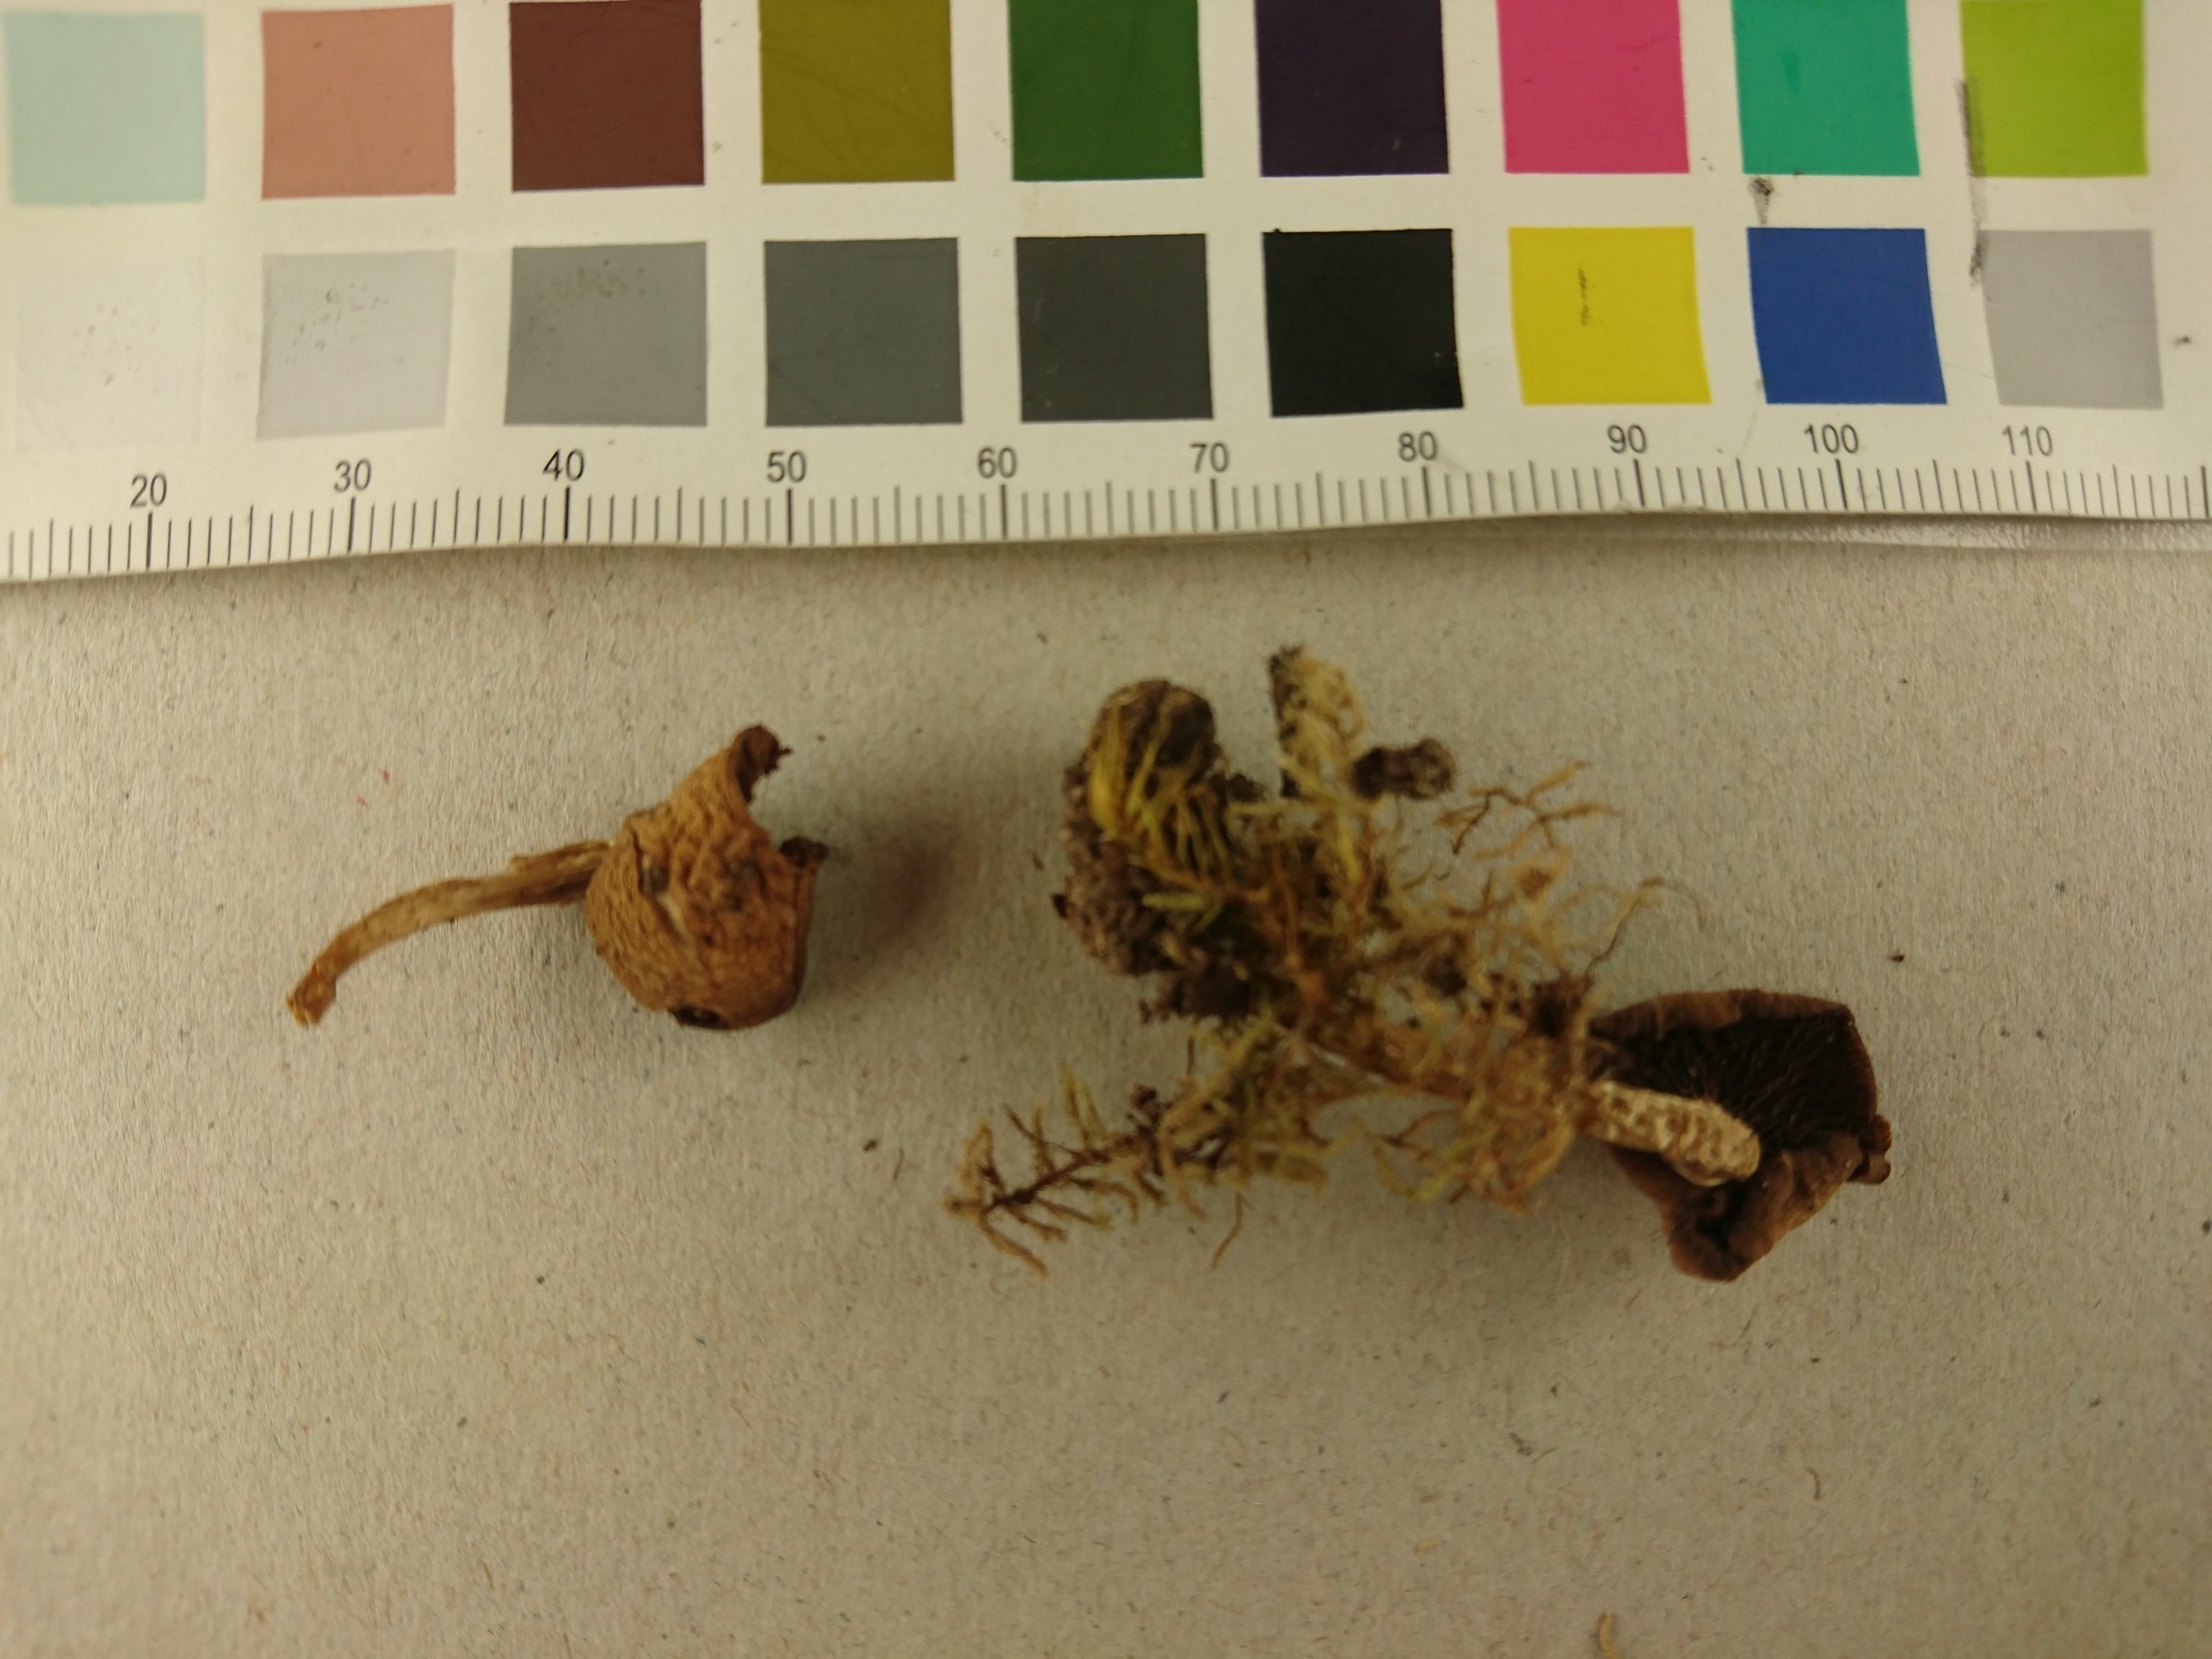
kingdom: Fungi
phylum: Basidiomycota
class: Agaricomycetes
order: Agaricales
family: Psathyrellaceae
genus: Psathyrella
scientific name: Psathyrella piluliformis
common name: Common stump brittlestem
